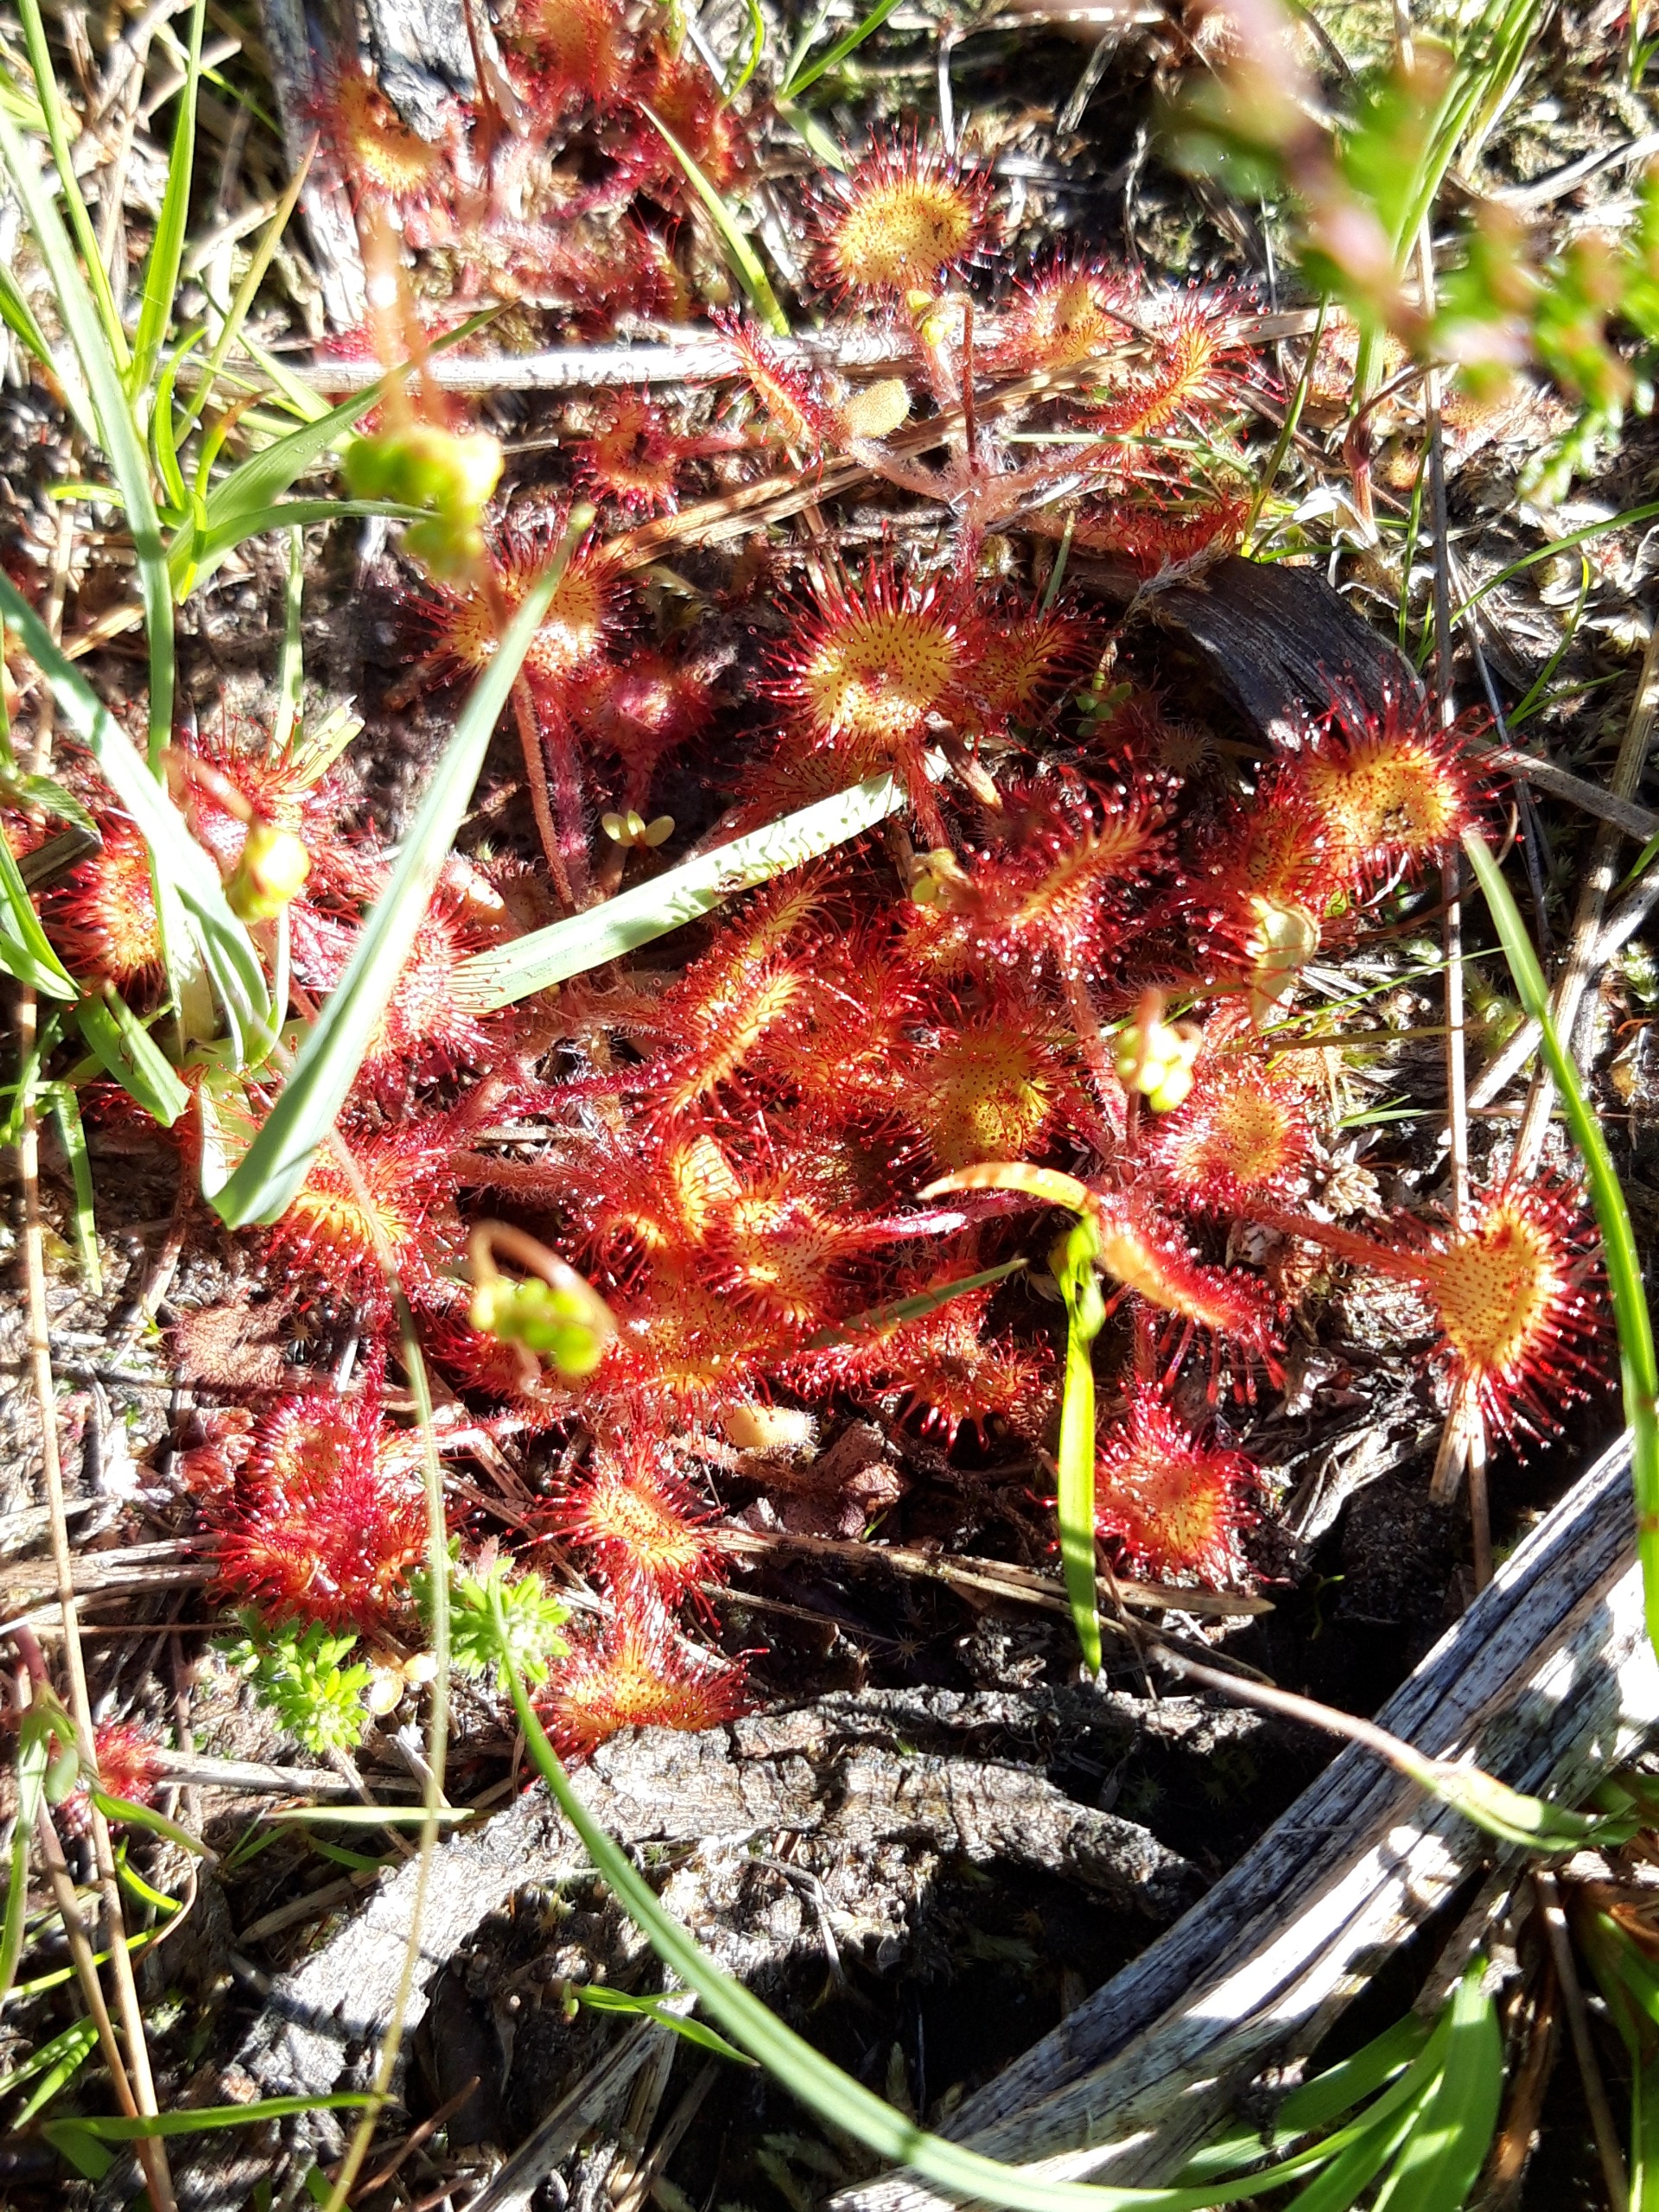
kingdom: Plantae
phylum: Tracheophyta
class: Magnoliopsida
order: Caryophyllales
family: Droseraceae
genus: Drosera
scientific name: Drosera rotundifolia
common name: Rundbladet soldug
